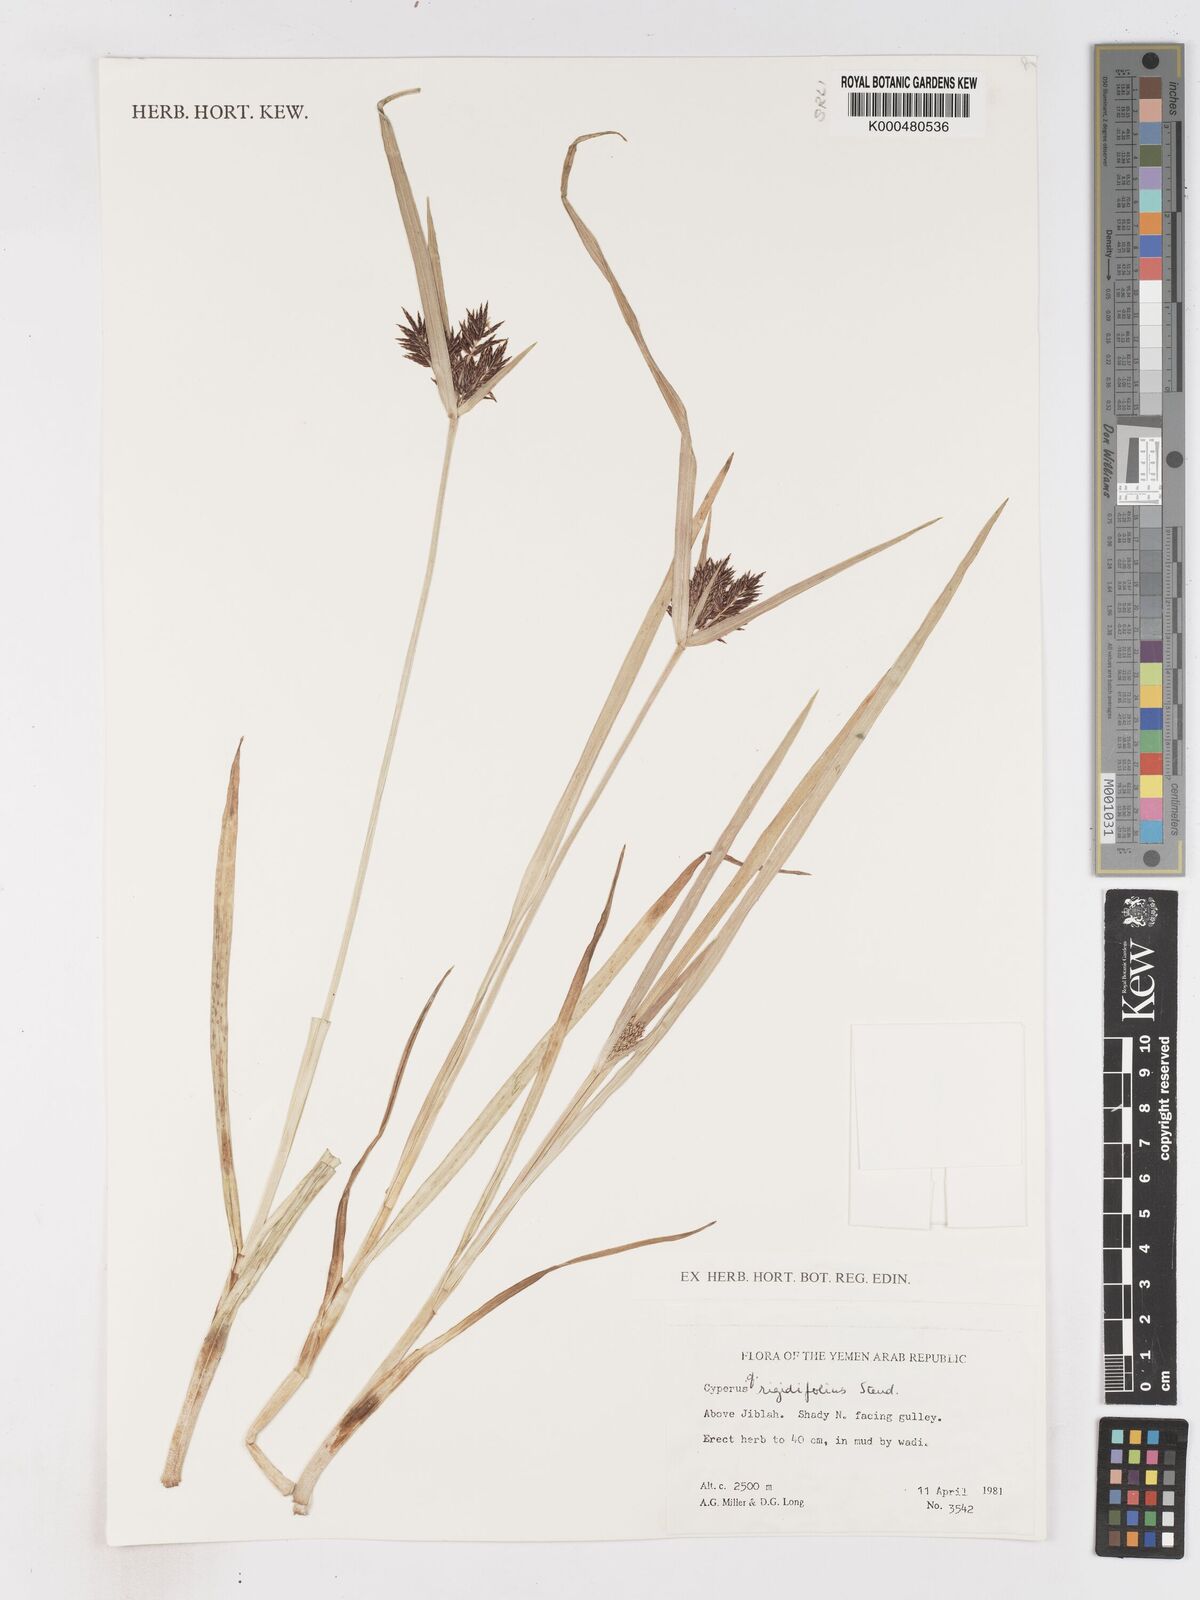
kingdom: Plantae
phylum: Tracheophyta
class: Liliopsida
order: Poales
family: Cyperaceae
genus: Cyperus
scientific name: Cyperus rigidifolius
